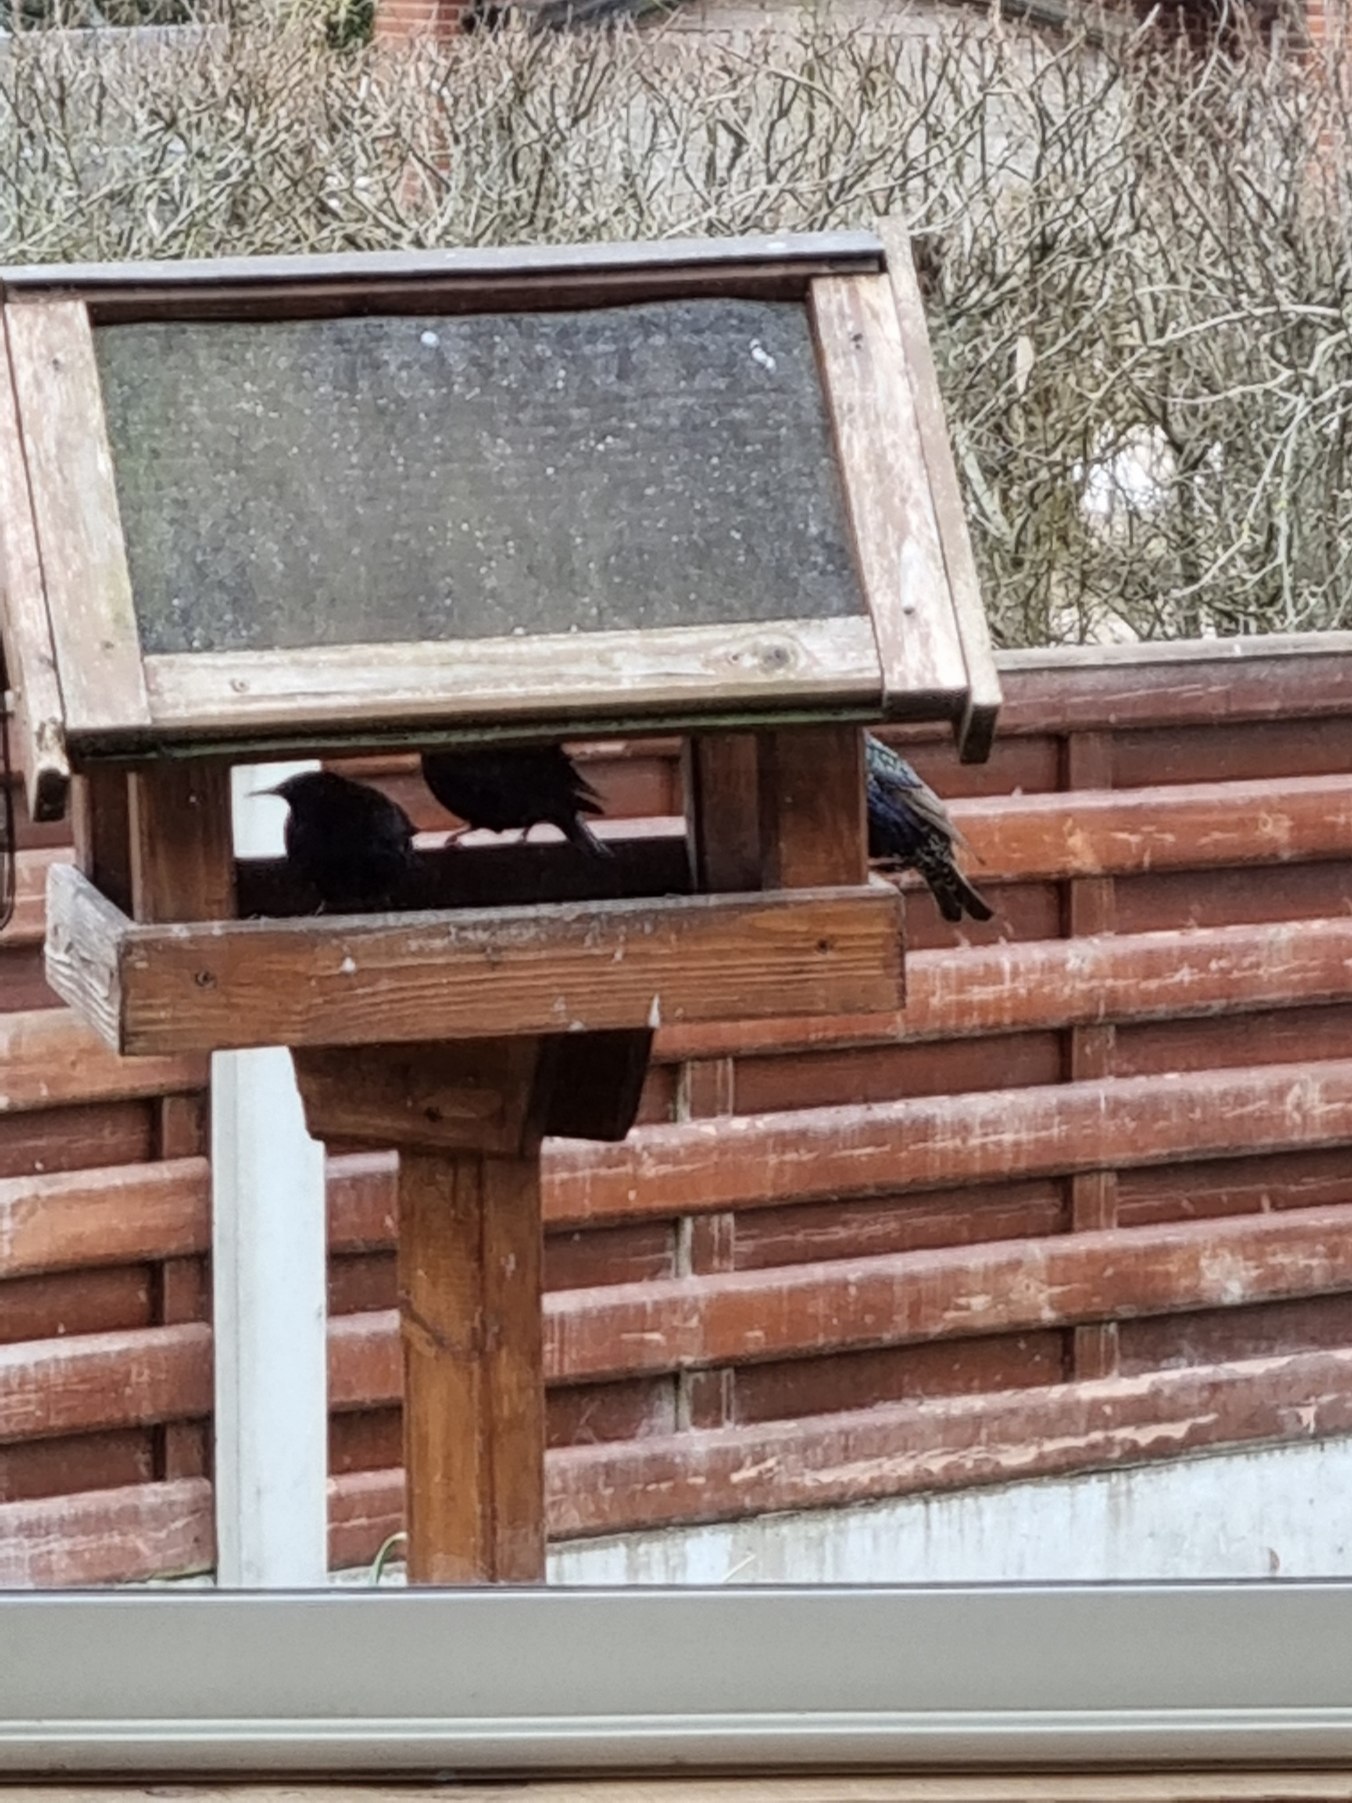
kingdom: Animalia
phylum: Chordata
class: Aves
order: Passeriformes
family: Sturnidae
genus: Sturnus
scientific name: Sturnus vulgaris
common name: Stær
